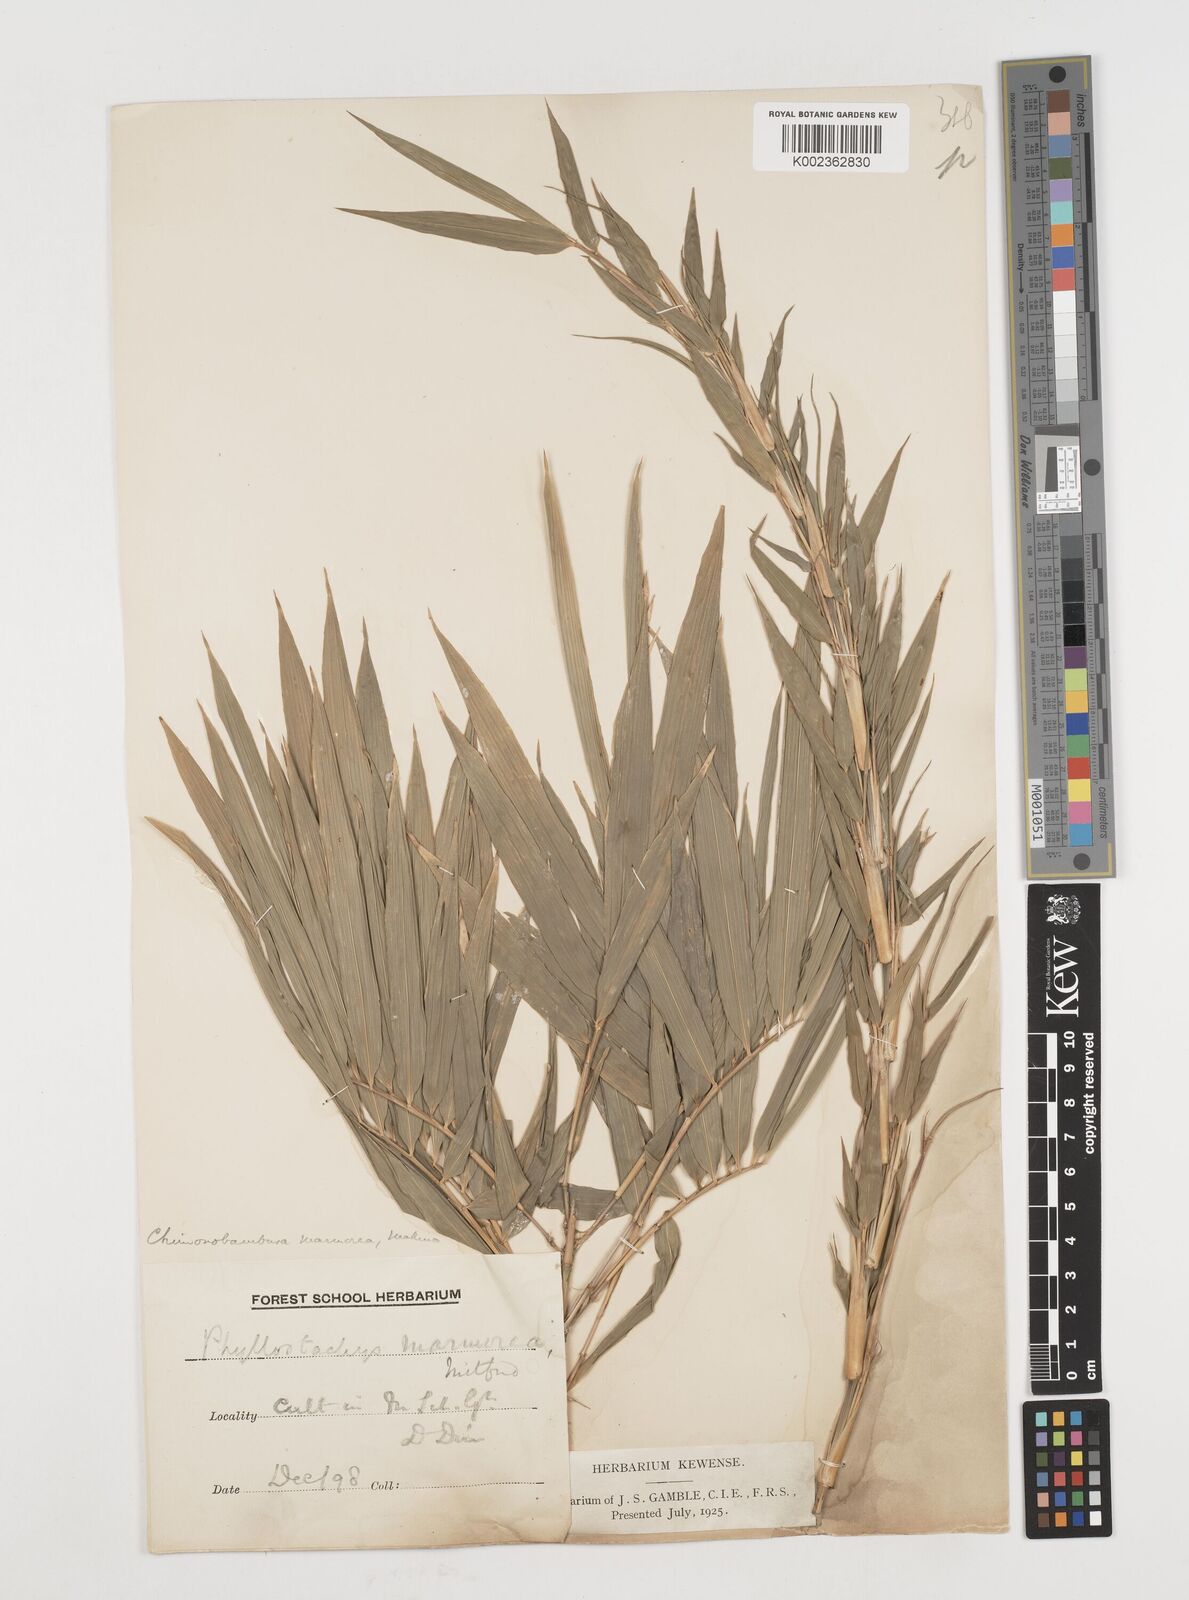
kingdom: Plantae
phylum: Tracheophyta
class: Liliopsida
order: Poales
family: Poaceae
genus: Chimonobambusa
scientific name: Chimonobambusa marmorea
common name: Marbled bamboo
